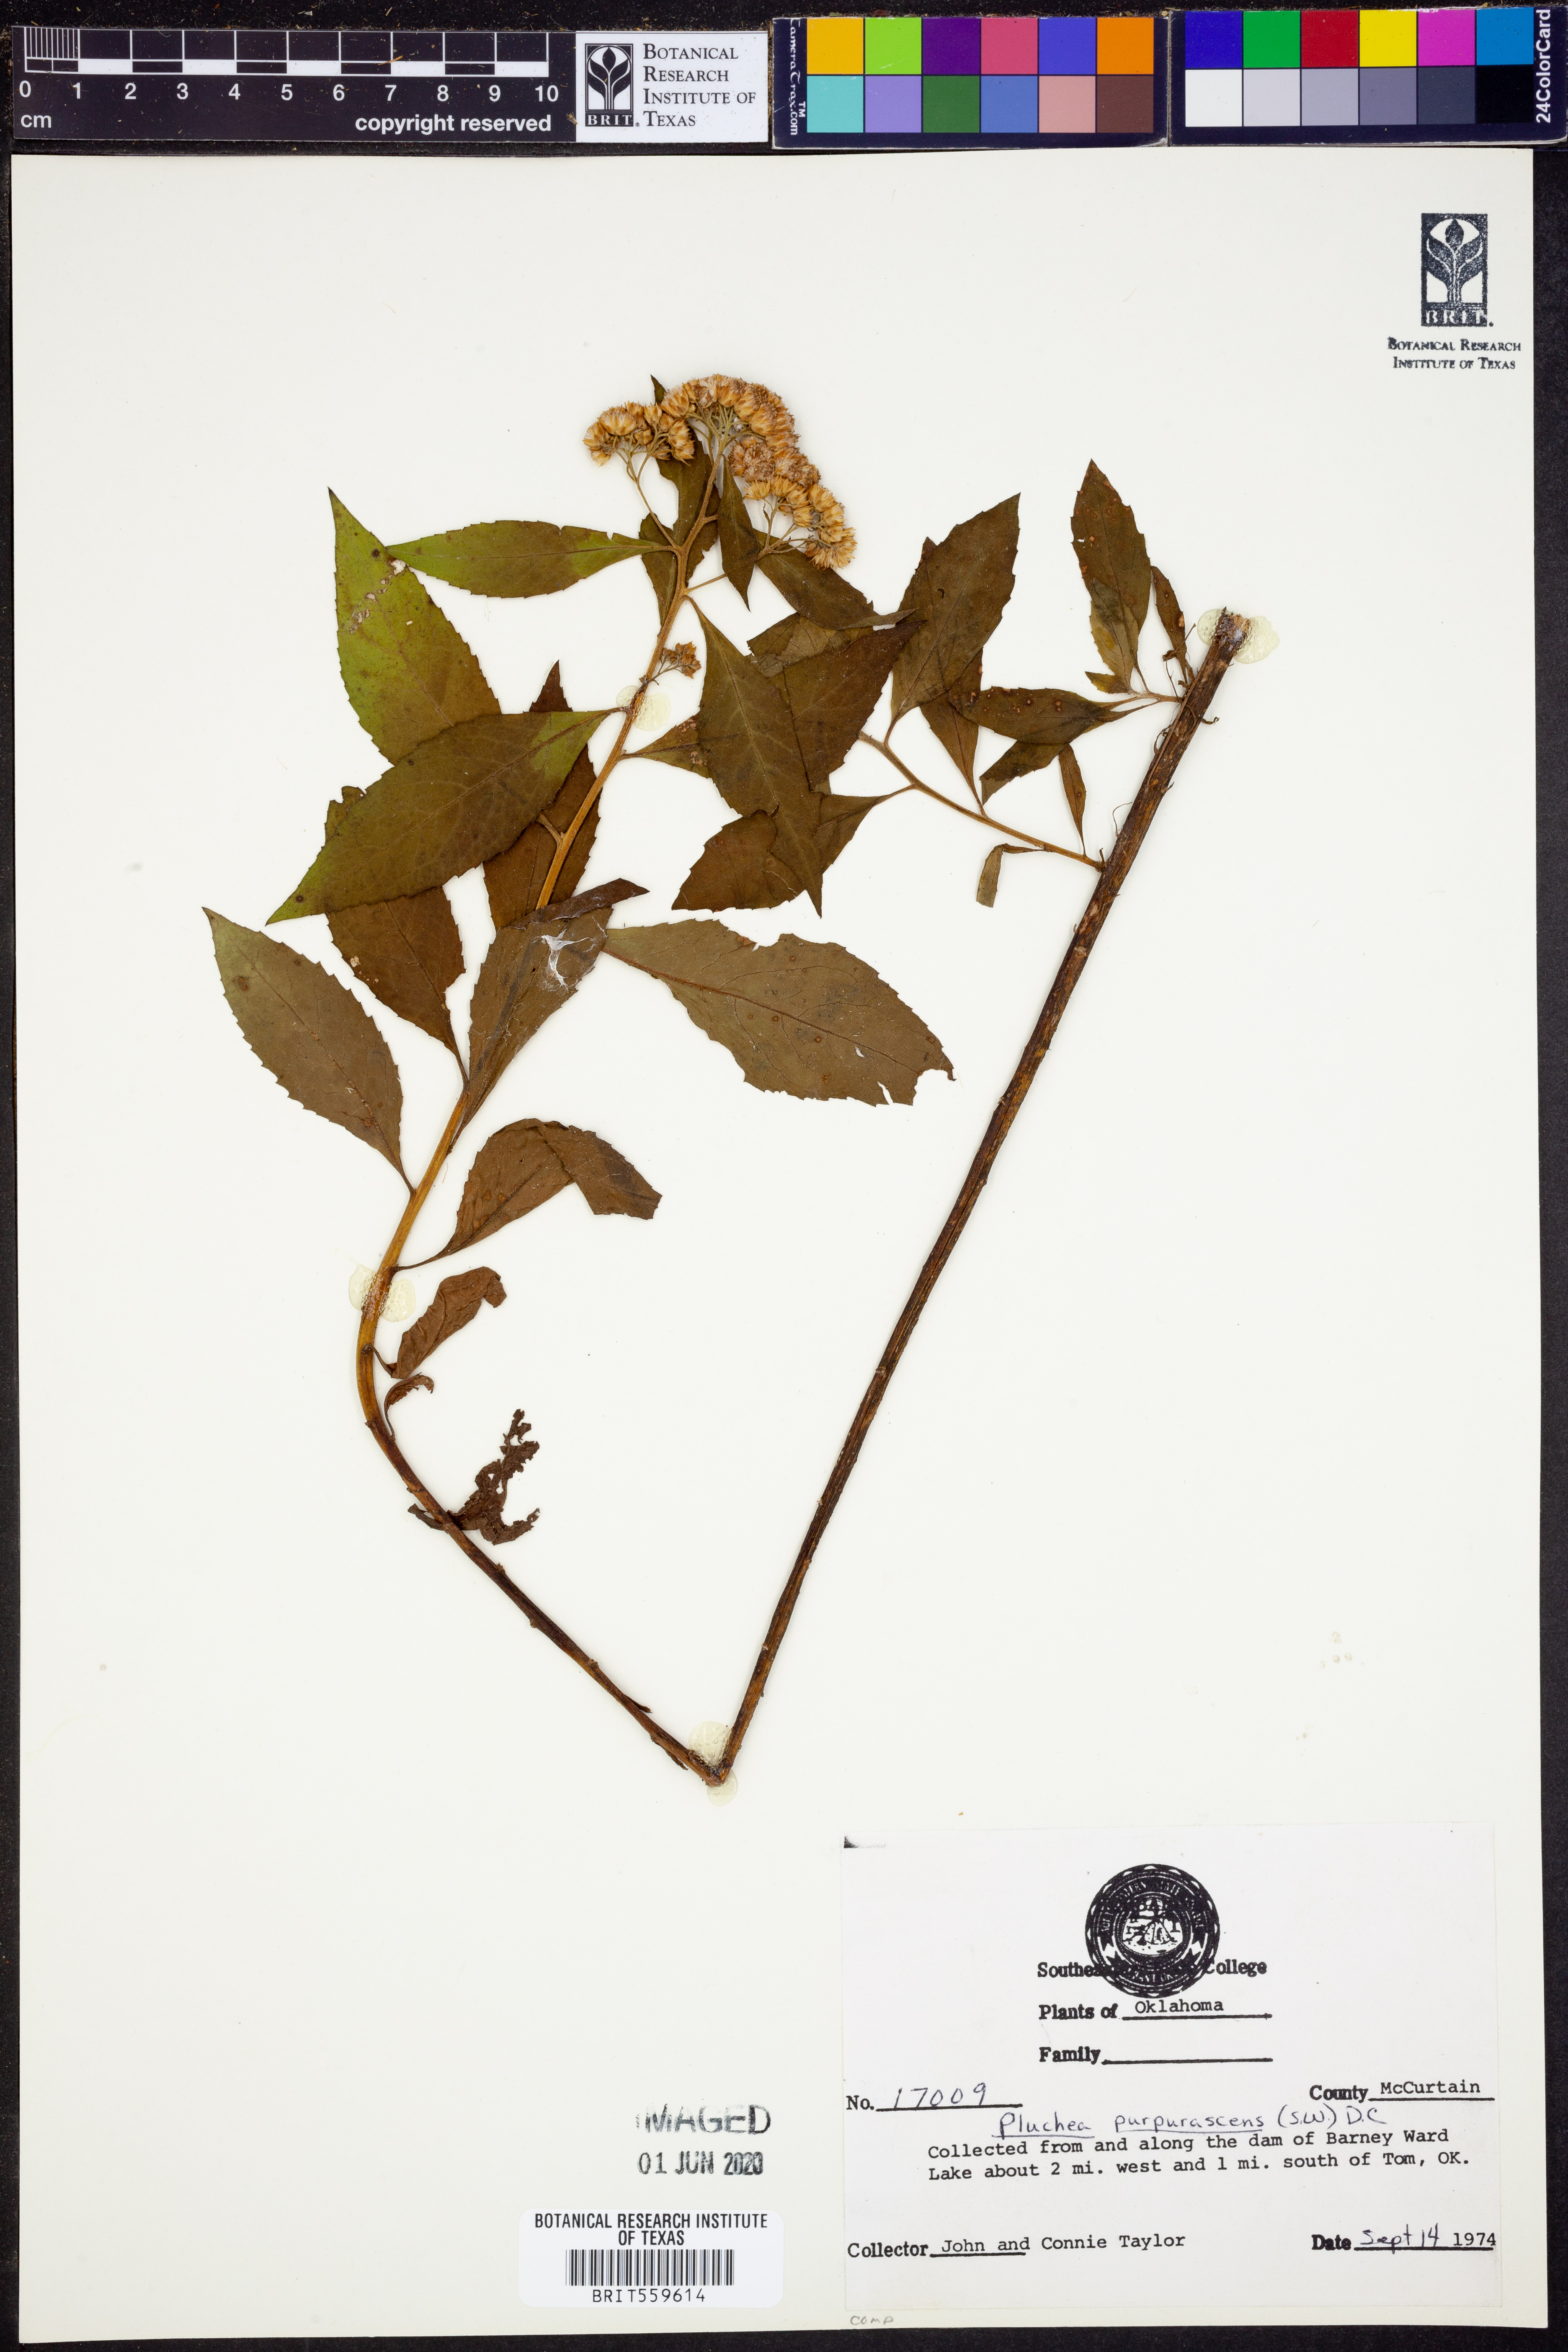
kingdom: Plantae
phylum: Tracheophyta
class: Magnoliopsida
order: Asterales
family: Asteraceae
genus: Pluchea
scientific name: Pluchea odorata
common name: Saltmarsh fleabane
